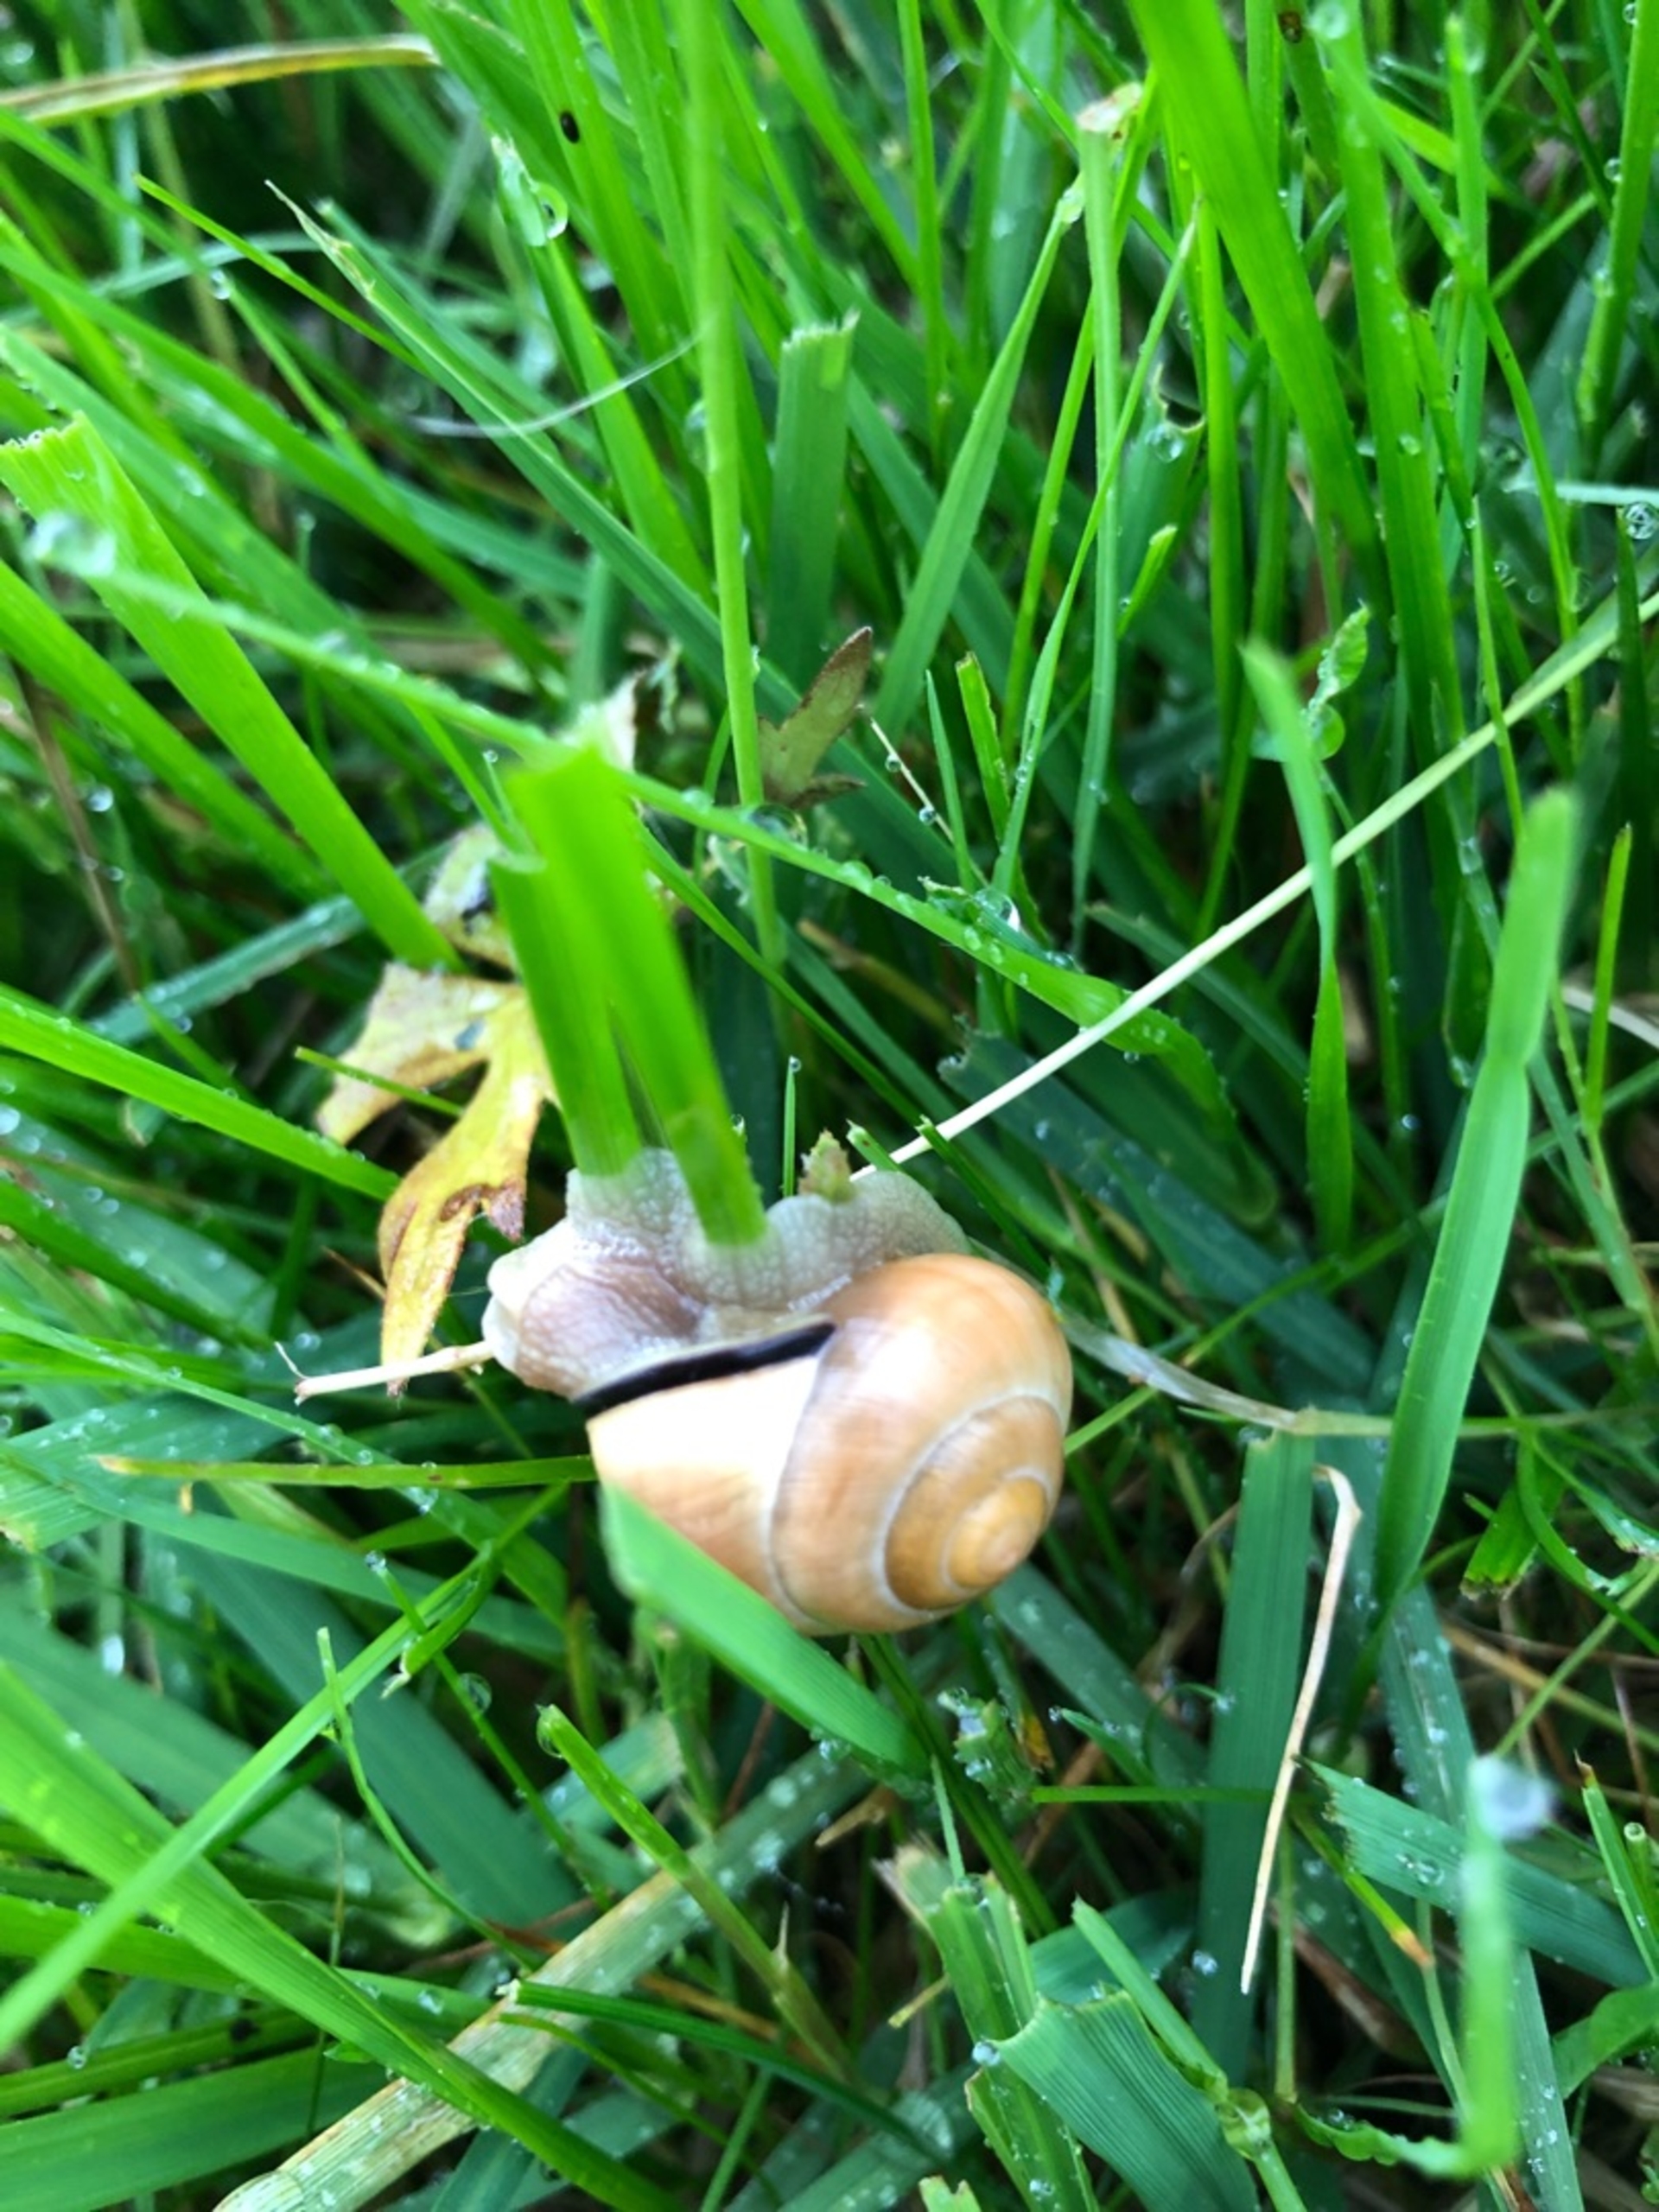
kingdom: Animalia
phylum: Mollusca
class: Gastropoda
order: Stylommatophora
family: Helicidae
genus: Cepaea
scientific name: Cepaea nemoralis
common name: Lundsnegl
